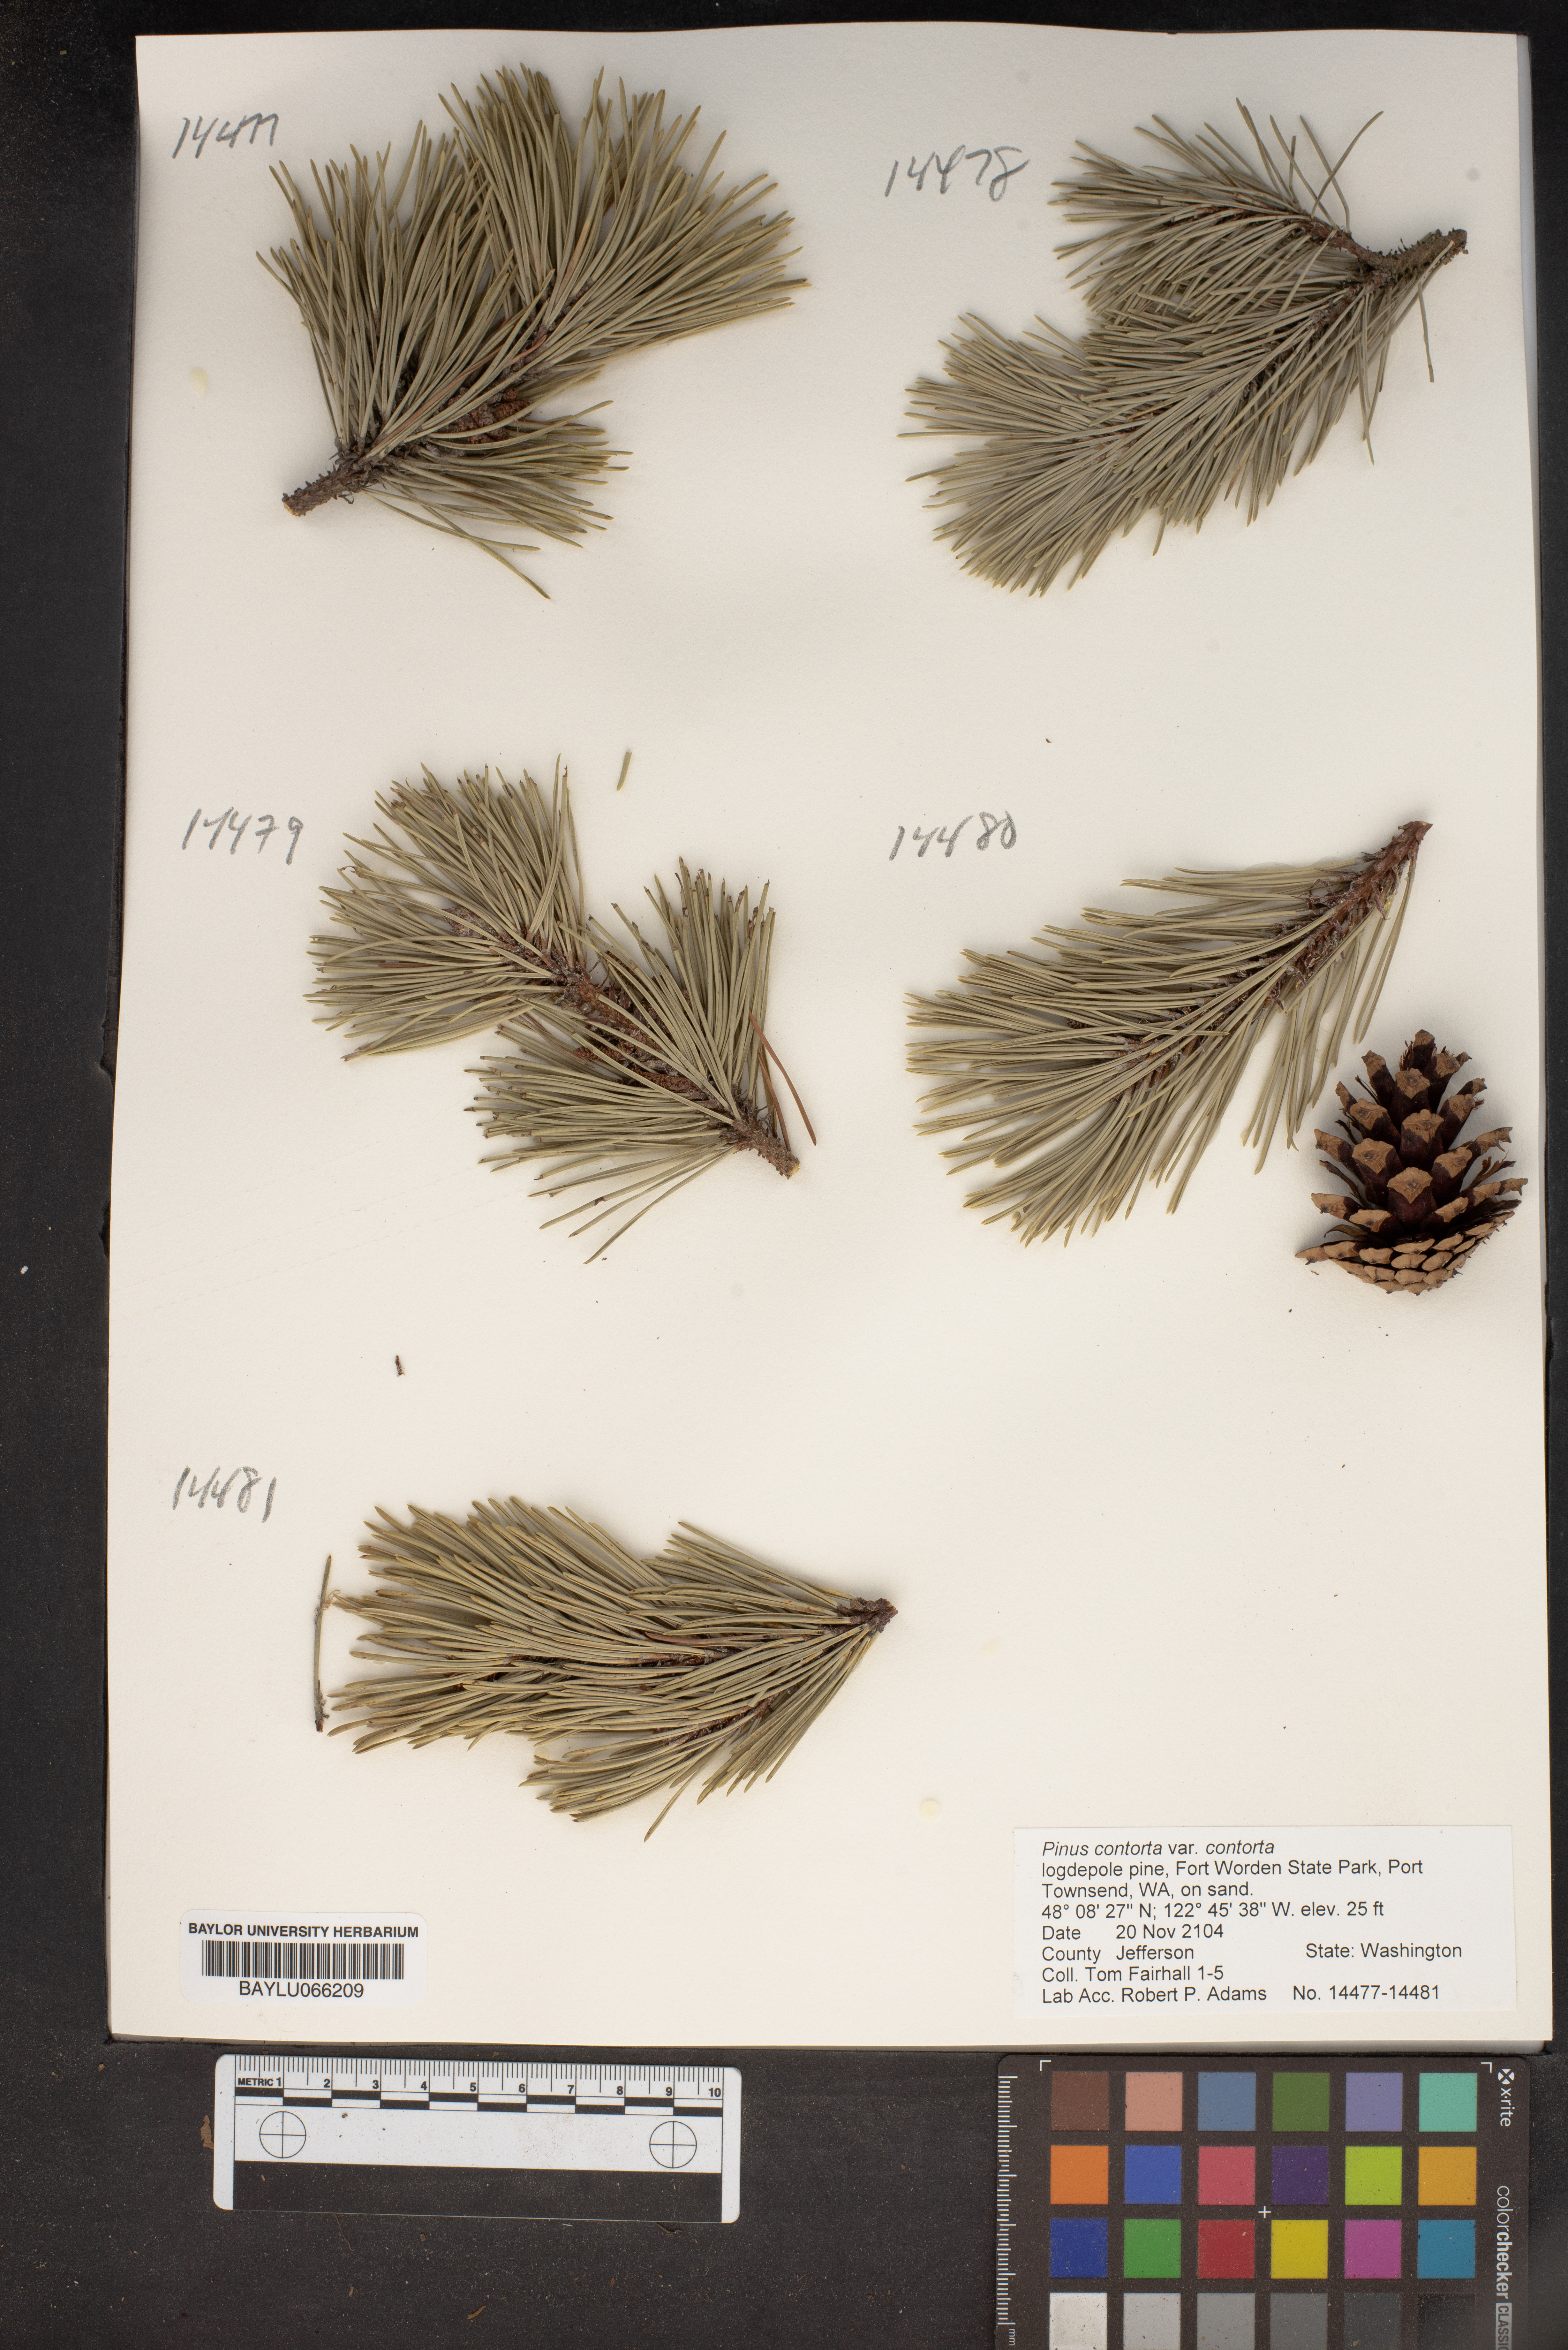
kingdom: Plantae
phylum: Tracheophyta
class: Pinopsida
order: Pinales
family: Pinaceae
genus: Pinus
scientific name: Pinus contorta
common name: Lodgepole pine
